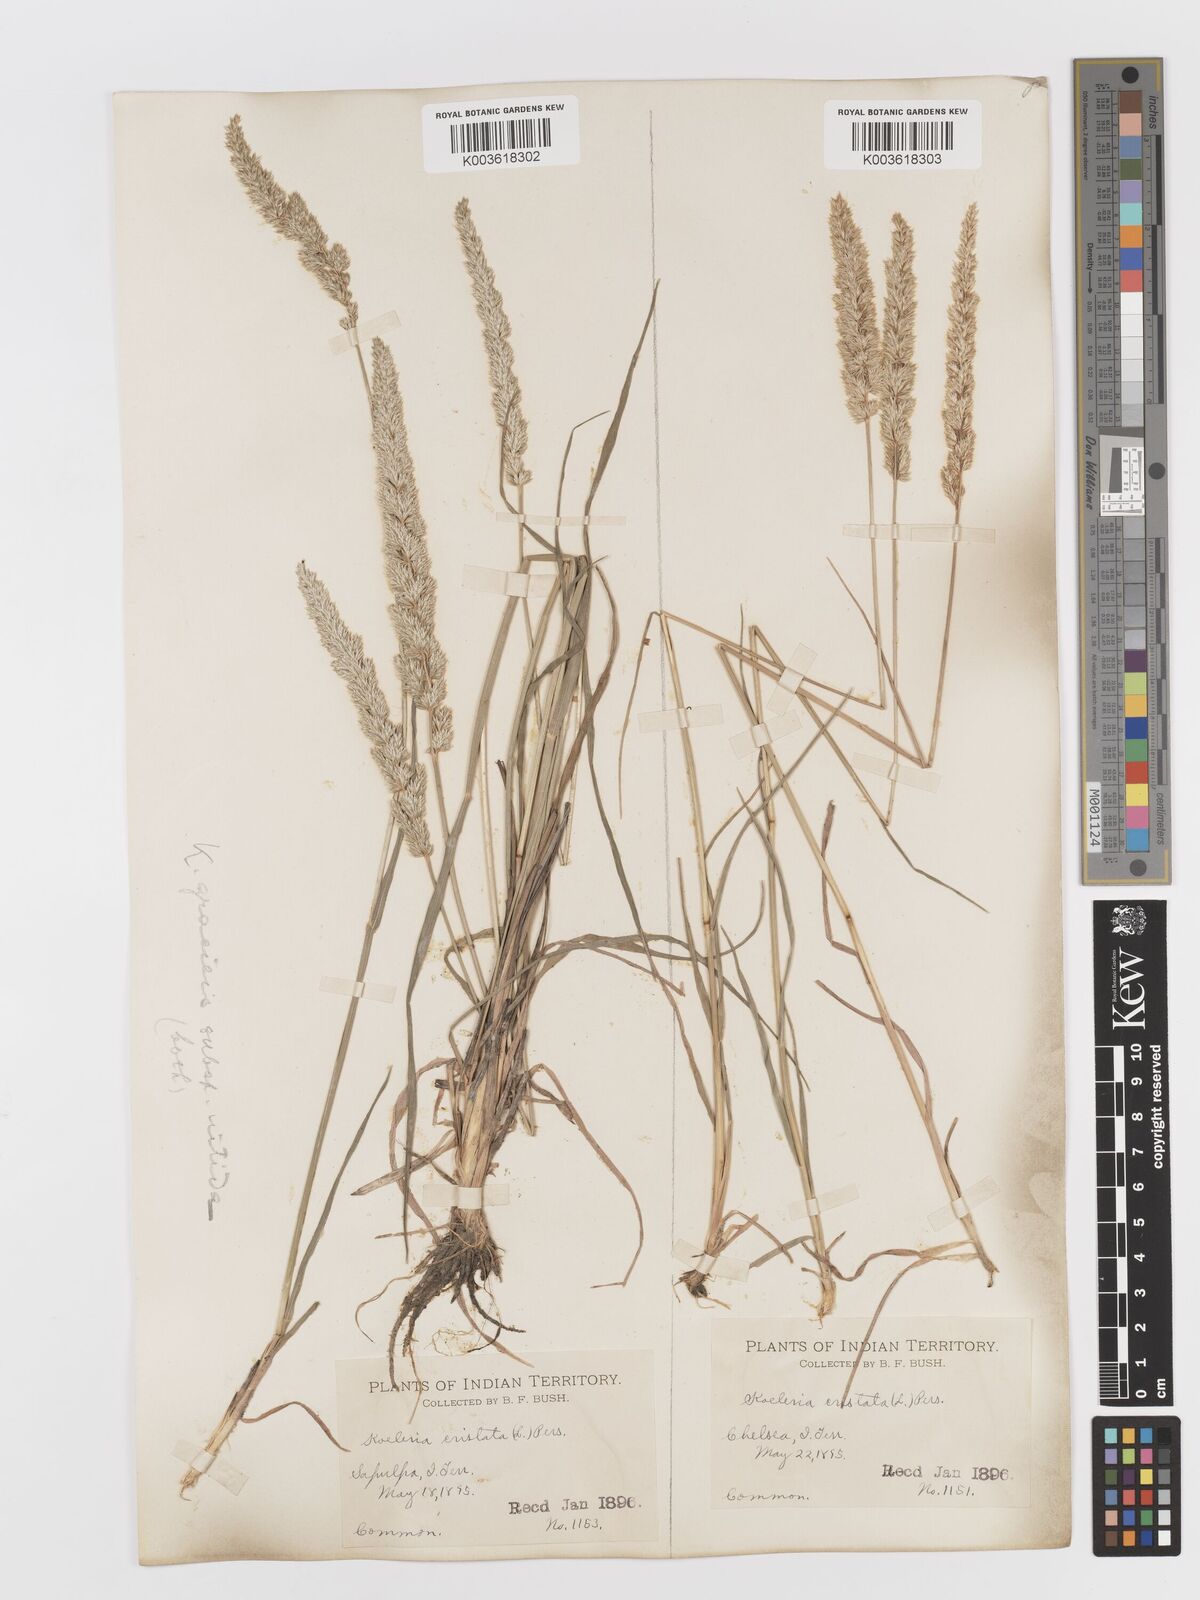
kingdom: Plantae
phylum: Tracheophyta
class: Liliopsida
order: Poales
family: Poaceae
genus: Koeleria
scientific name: Koeleria macrantha
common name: Crested hair-grass
